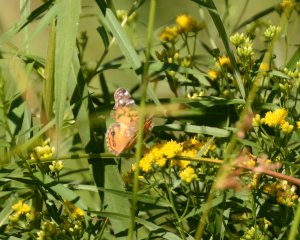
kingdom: Animalia
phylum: Arthropoda
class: Insecta
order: Lepidoptera
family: Nymphalidae
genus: Vanessa
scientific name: Vanessa virginiensis
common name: American Lady
